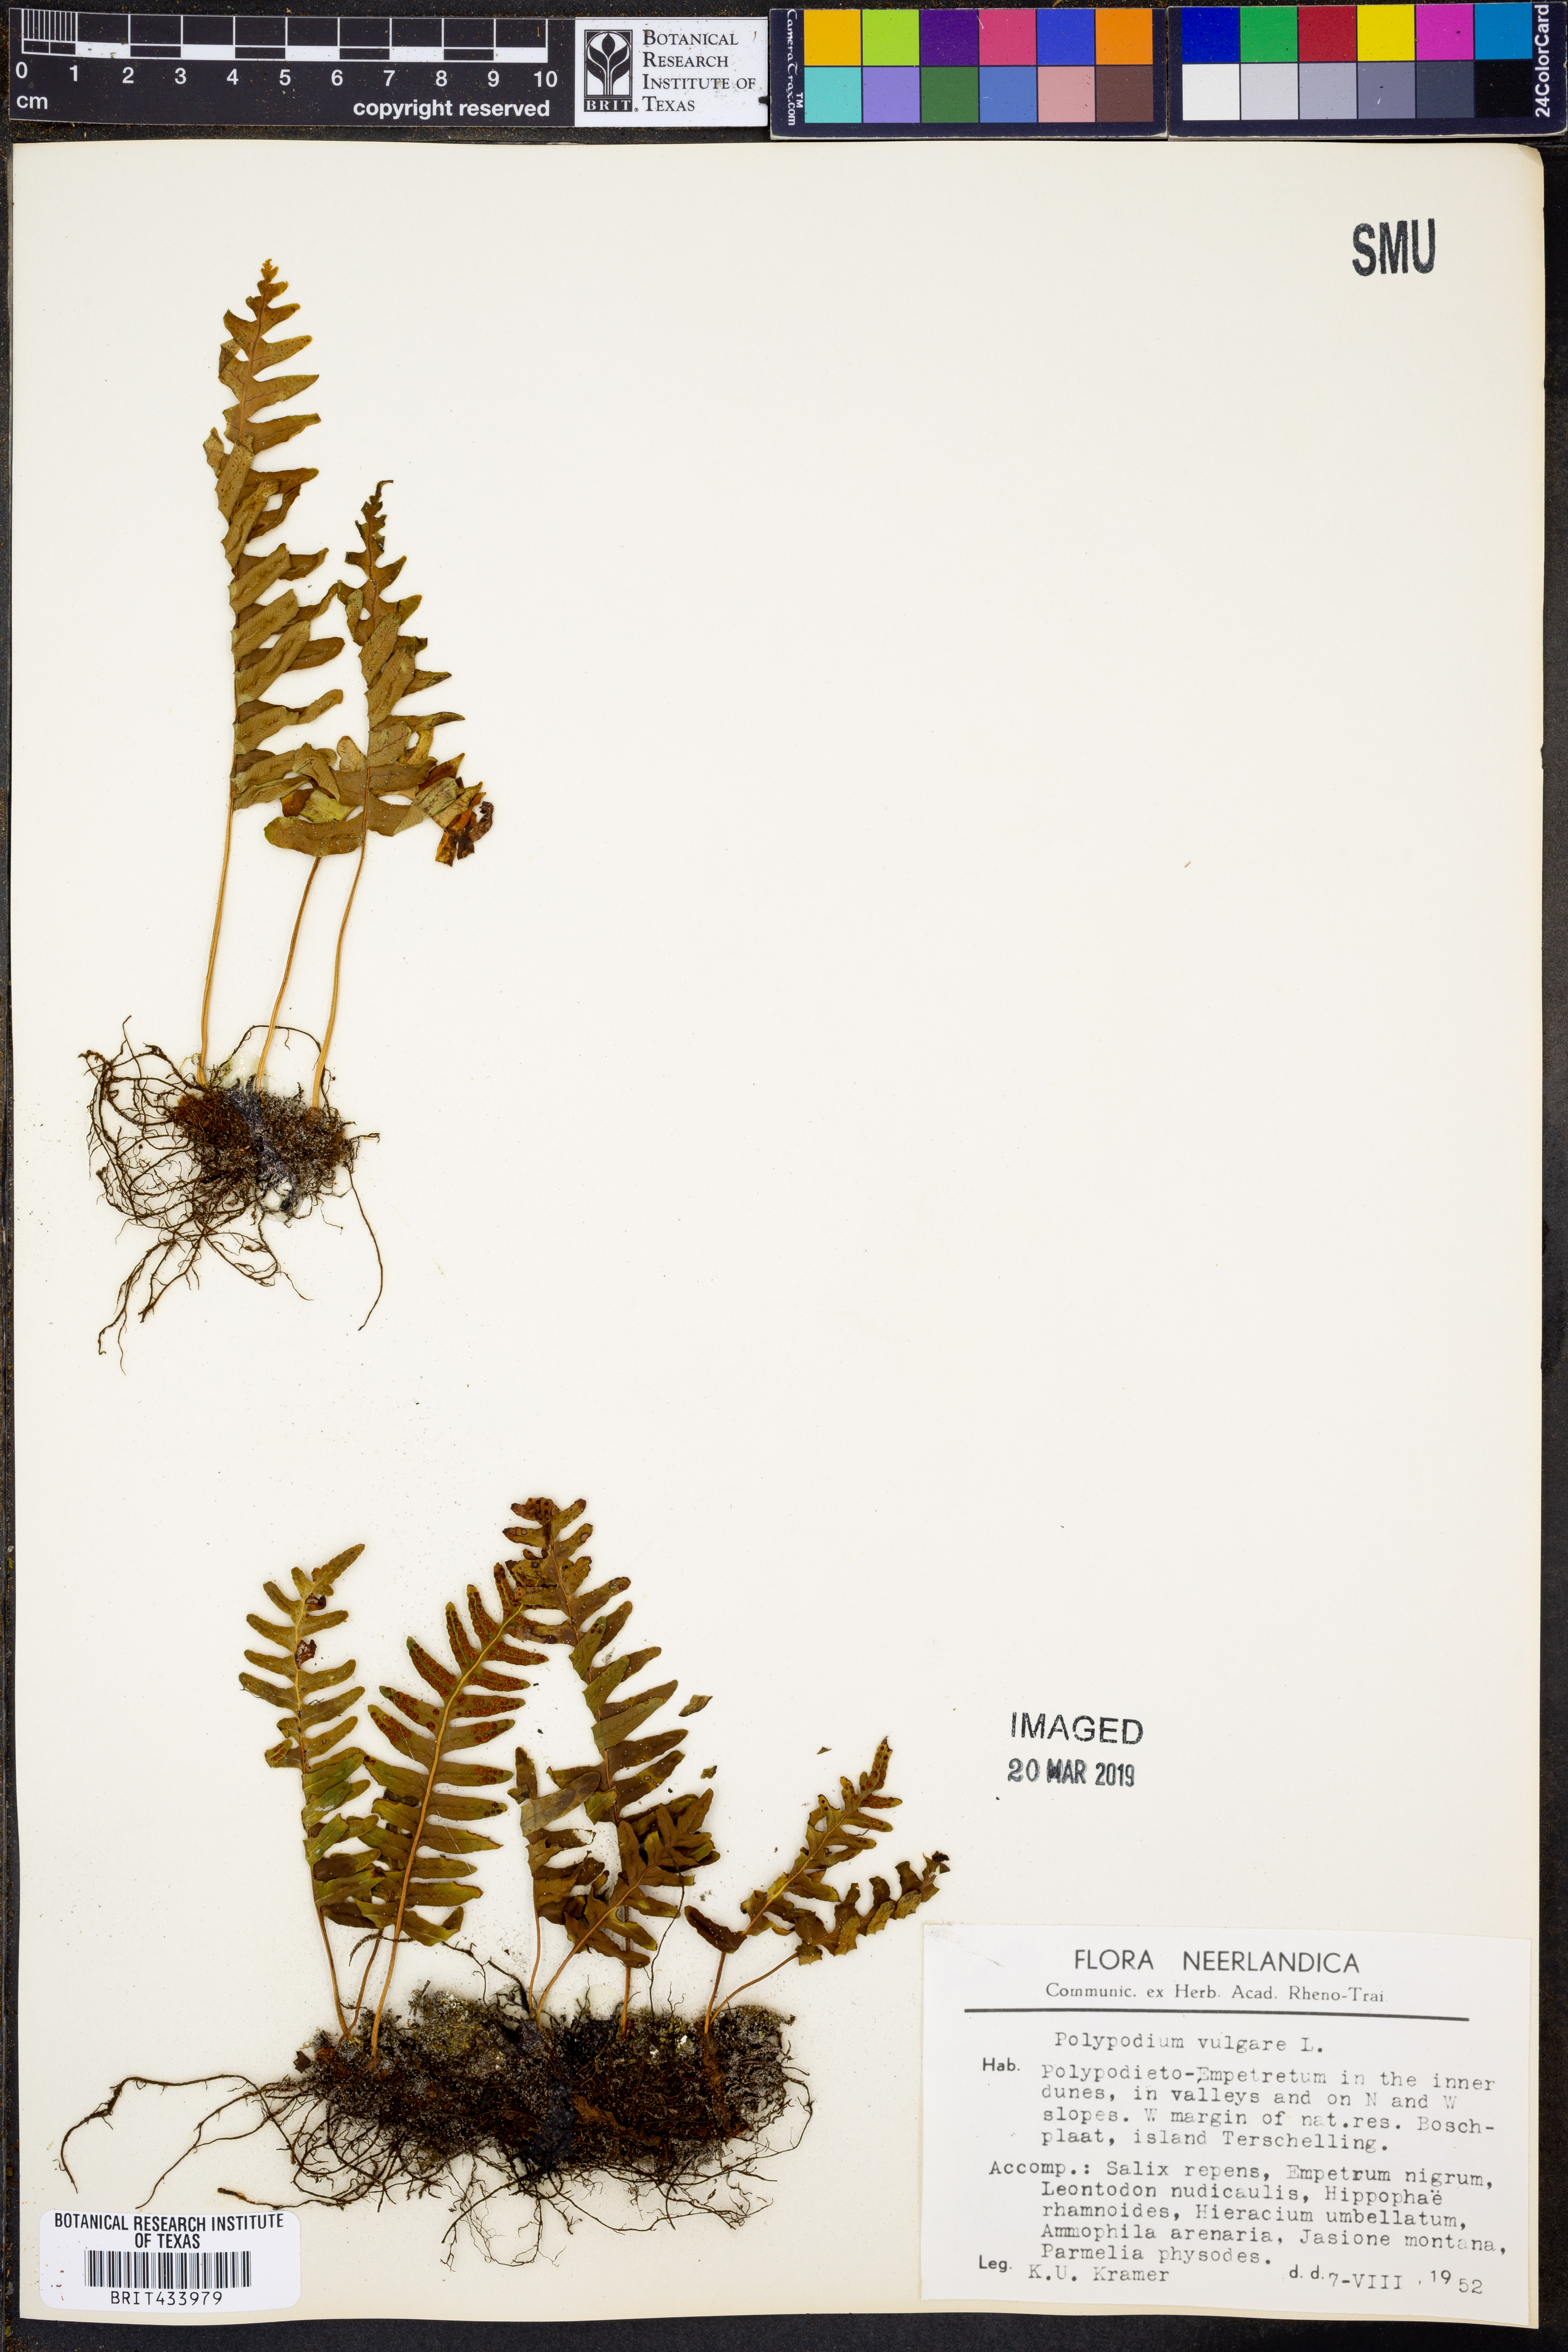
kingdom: Plantae
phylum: Tracheophyta
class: Polypodiopsida
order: Polypodiales
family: Polypodiaceae
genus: Polypodium
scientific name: Polypodium vulgare
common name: Common polypody
